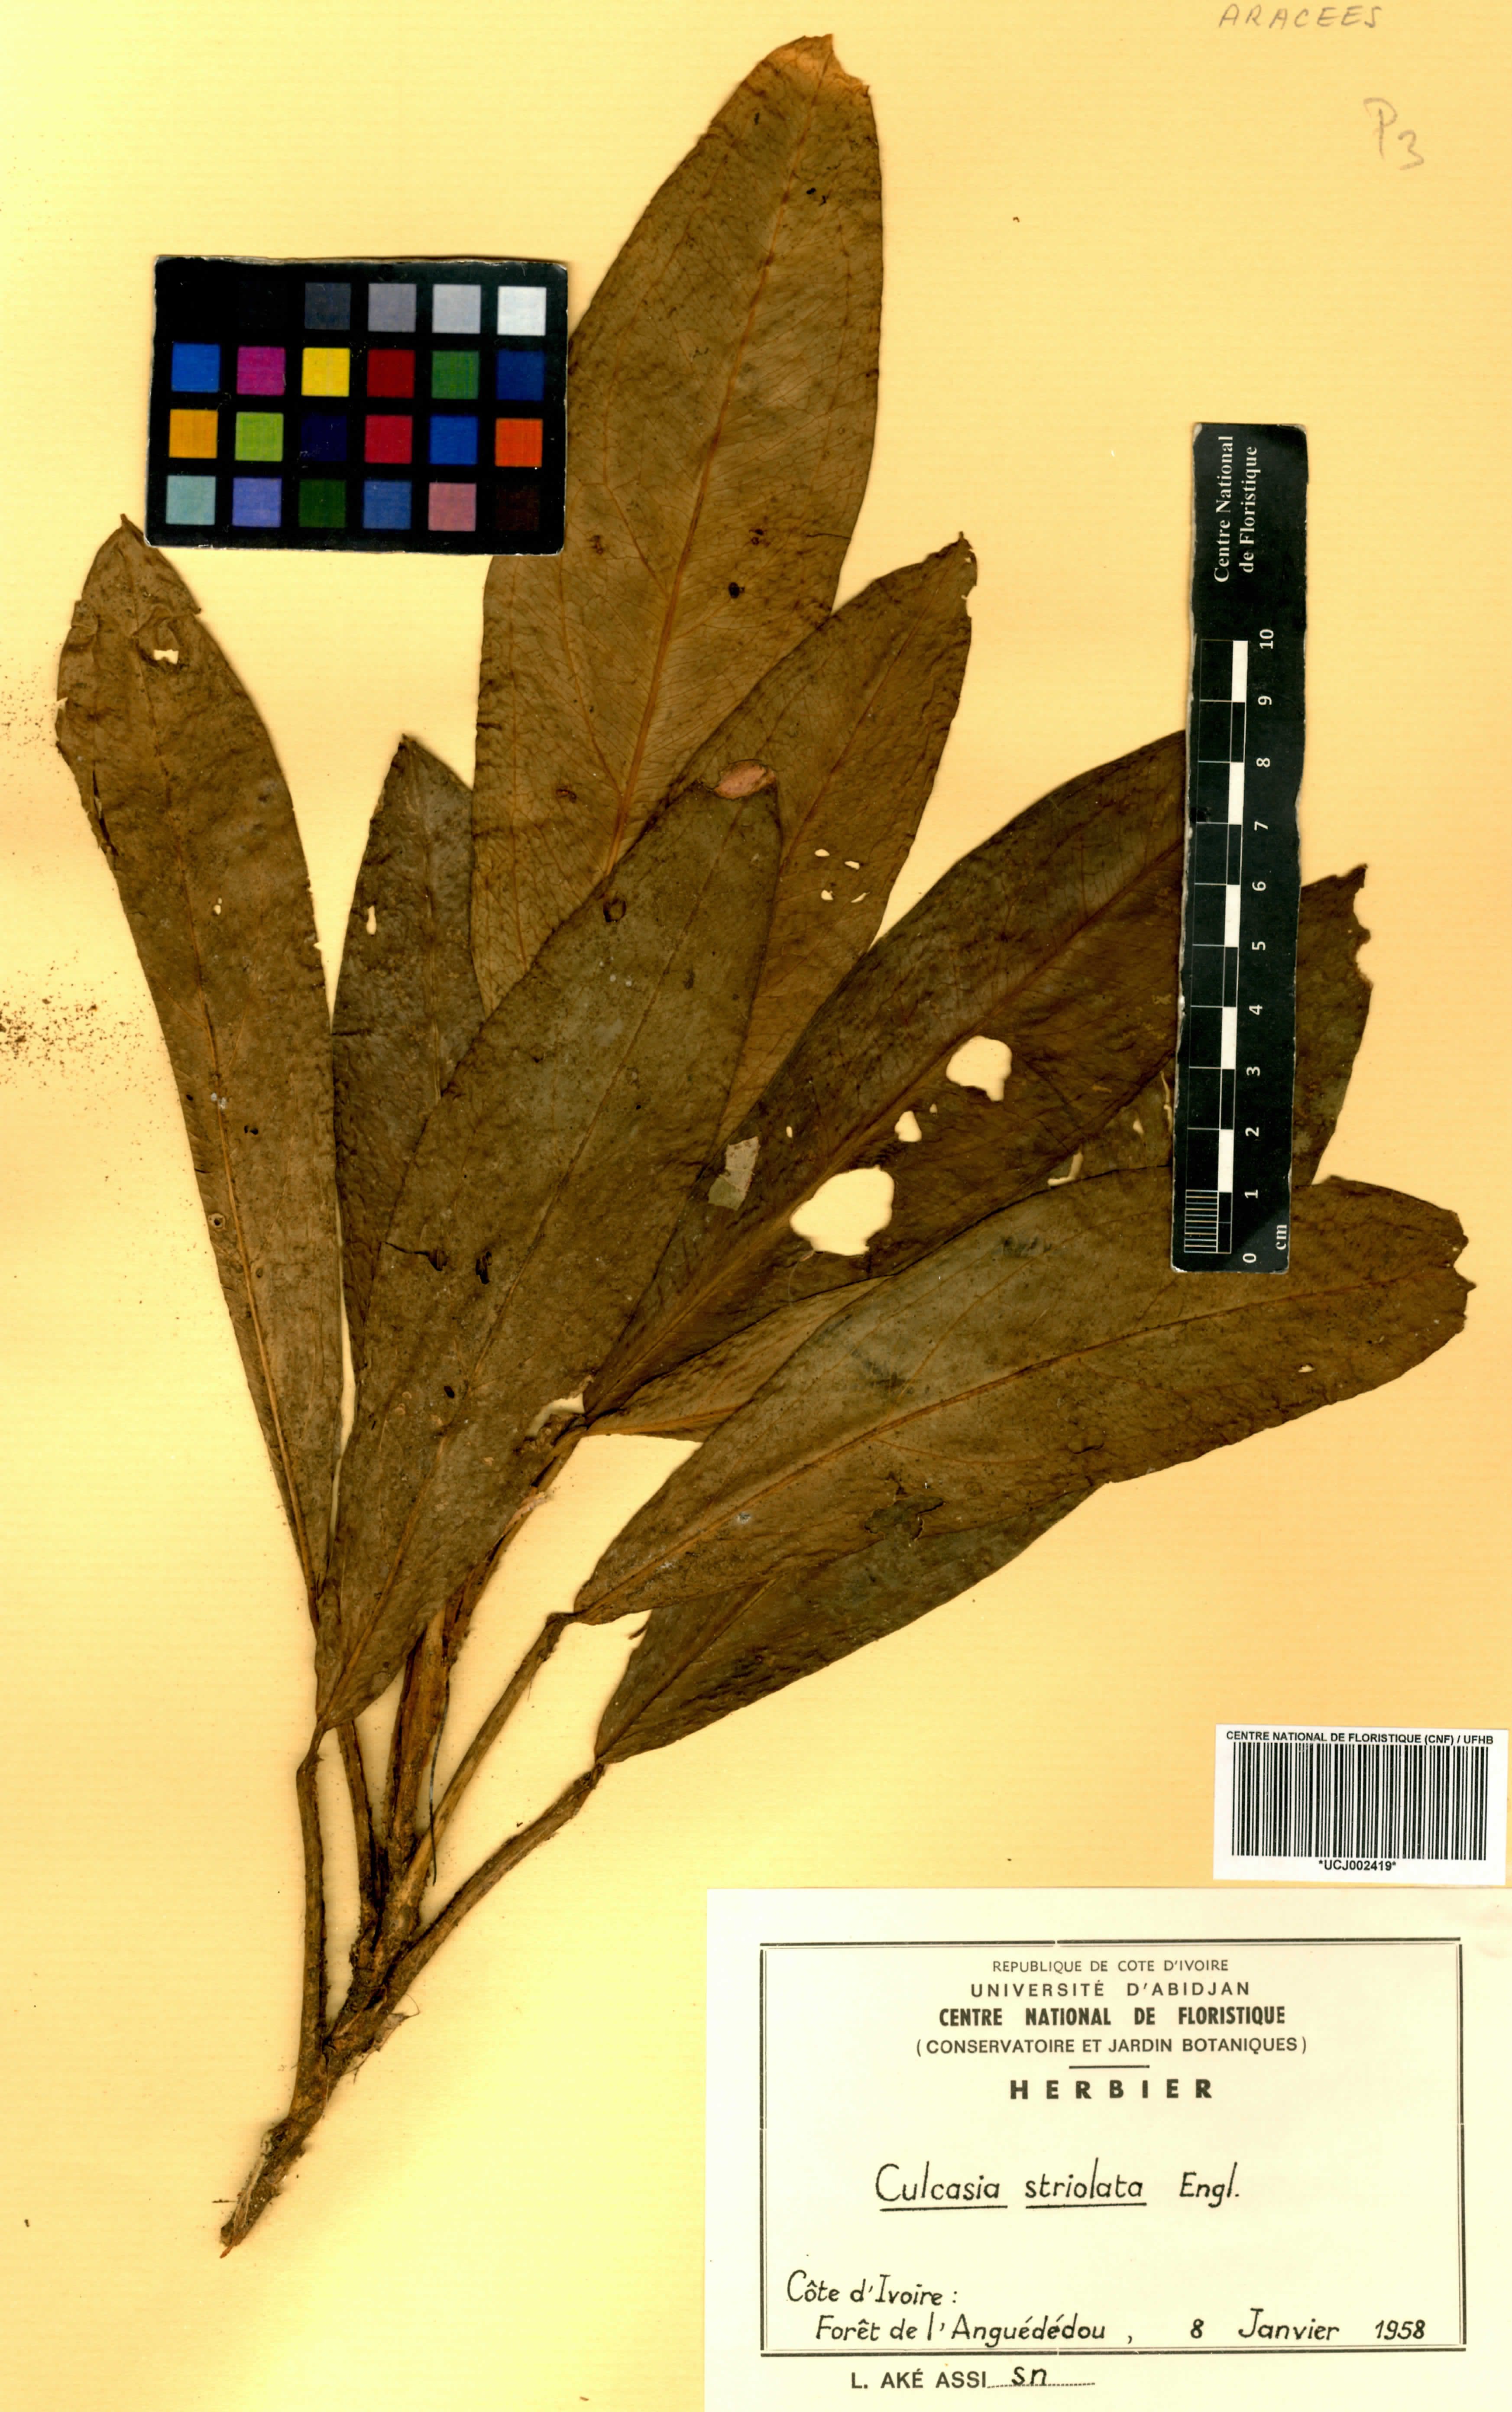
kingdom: Plantae
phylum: Tracheophyta
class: Liliopsida
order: Alismatales
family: Araceae
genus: Culcasia
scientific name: Culcasia striolata
